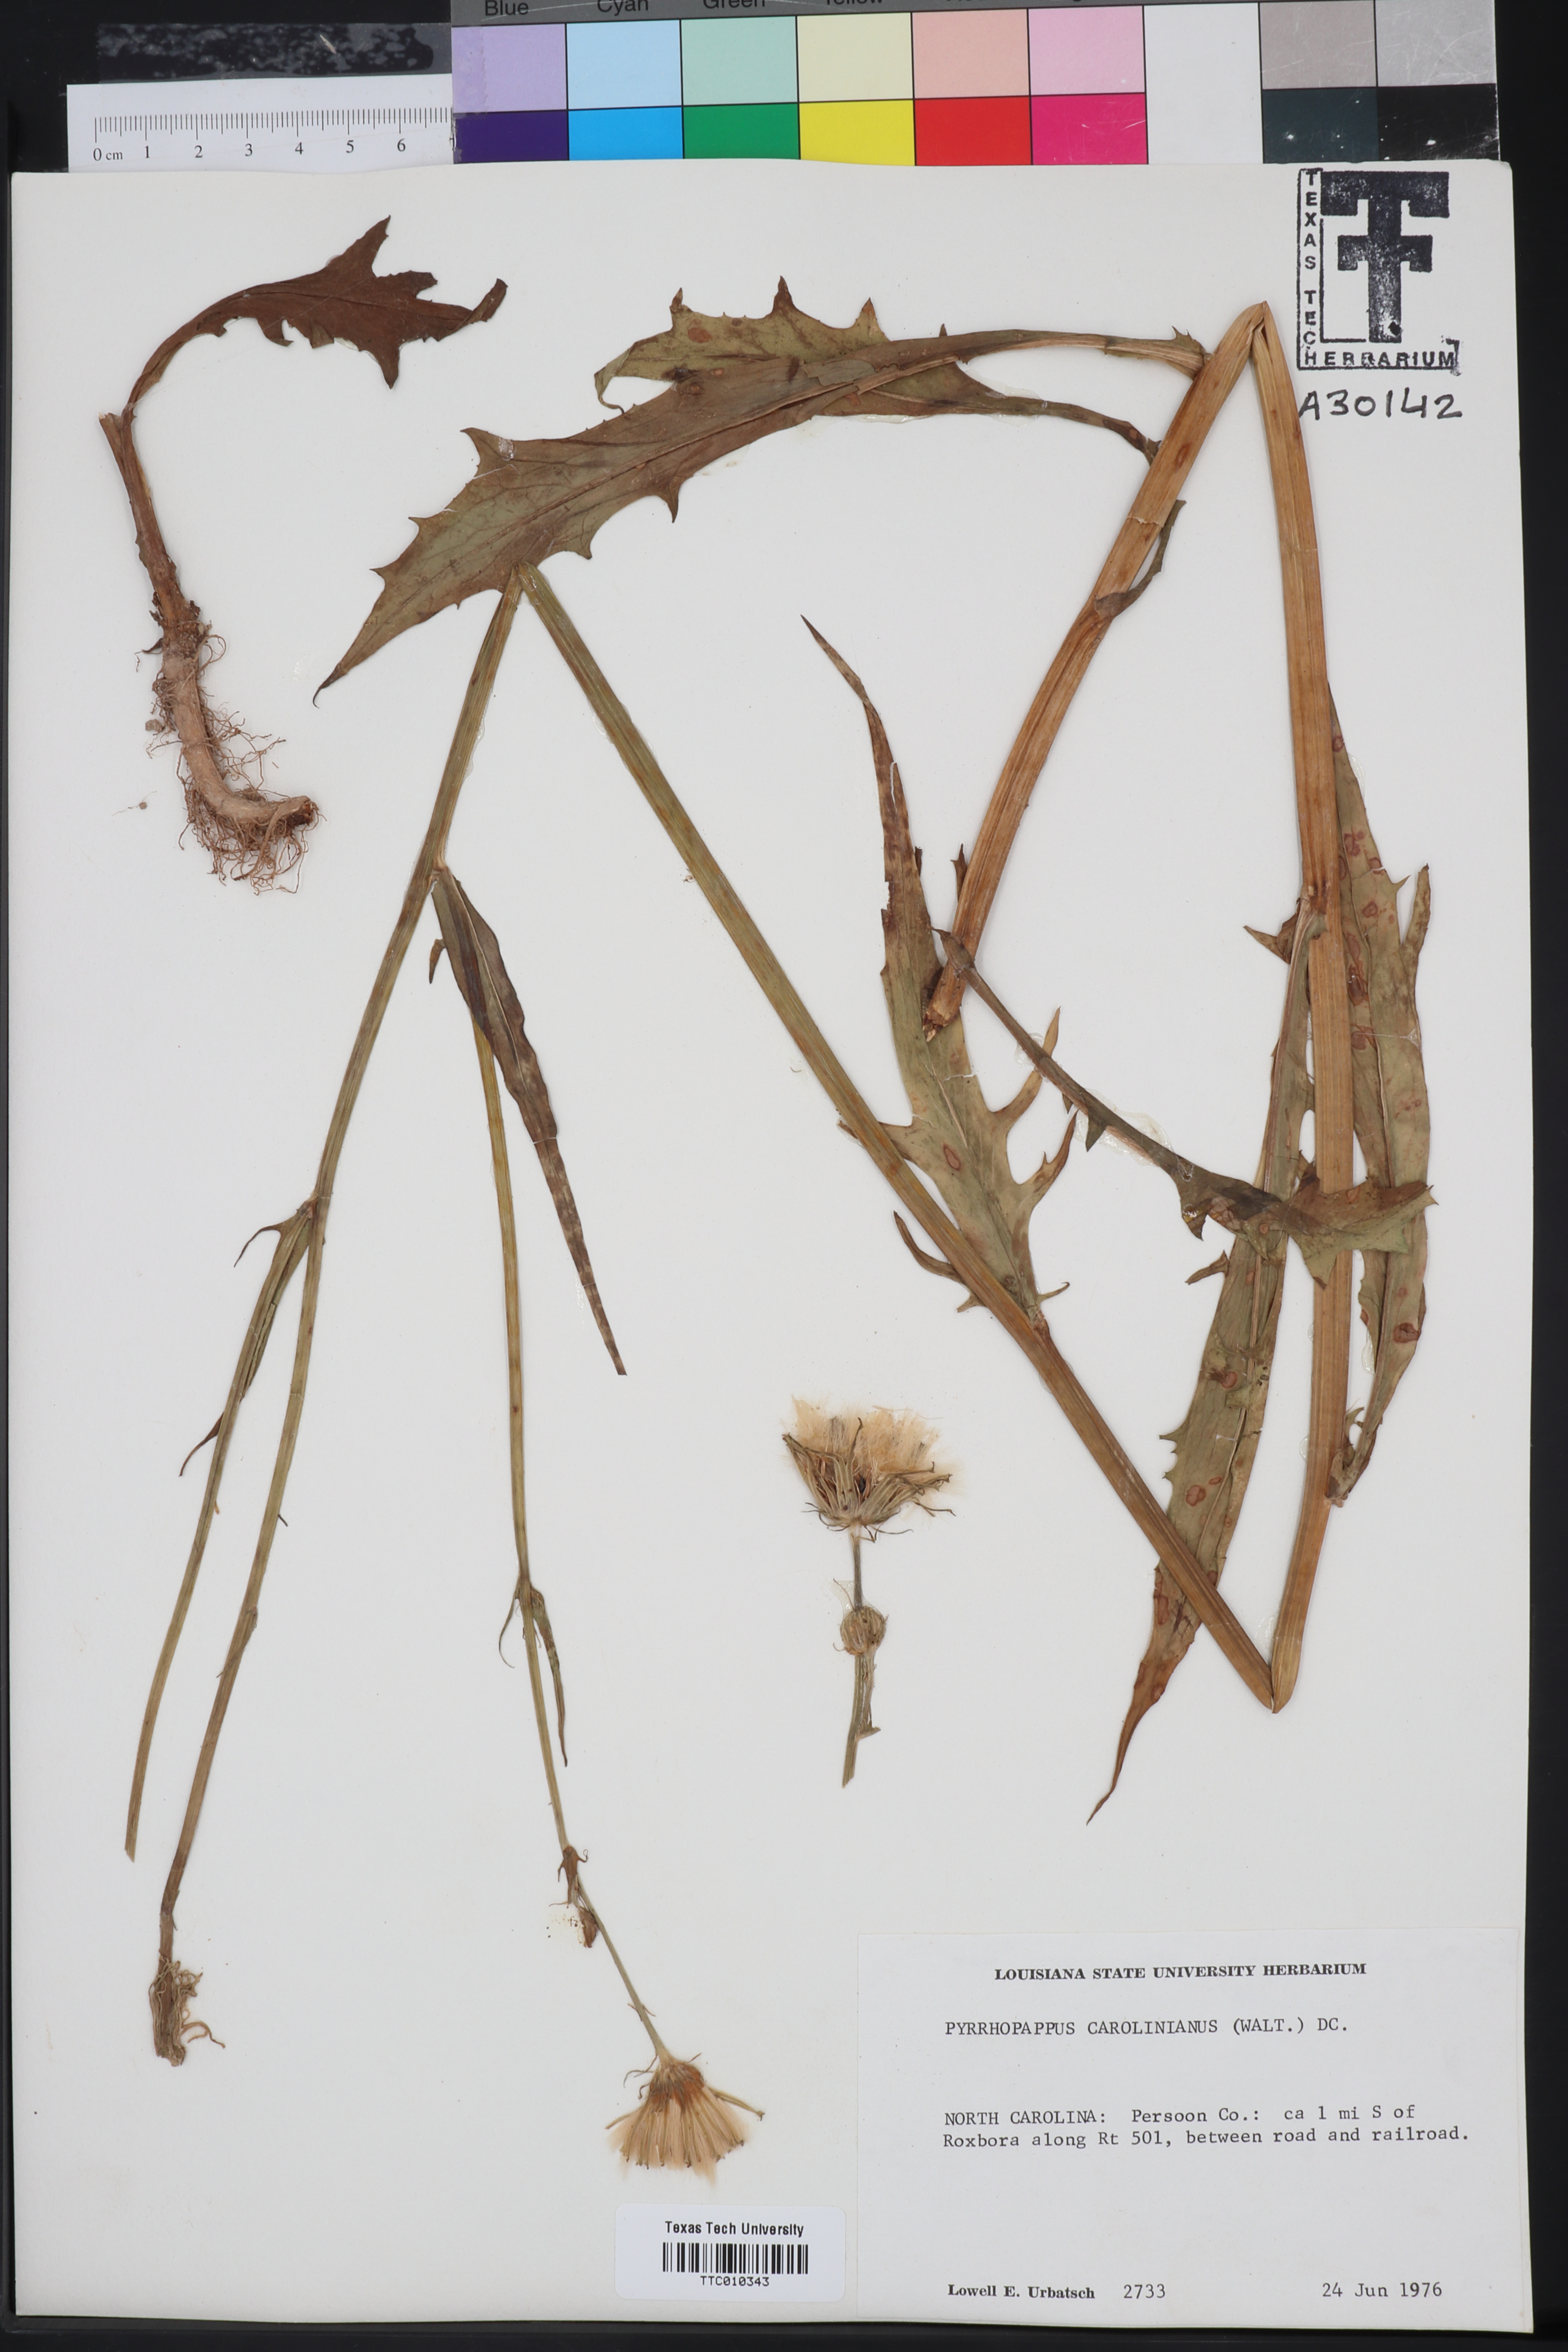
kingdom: Plantae
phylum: Tracheophyta
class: Magnoliopsida
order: Asterales
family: Asteraceae
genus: Pyrrhopappus
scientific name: Pyrrhopappus carolinianus
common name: Carolina desert-chicory
